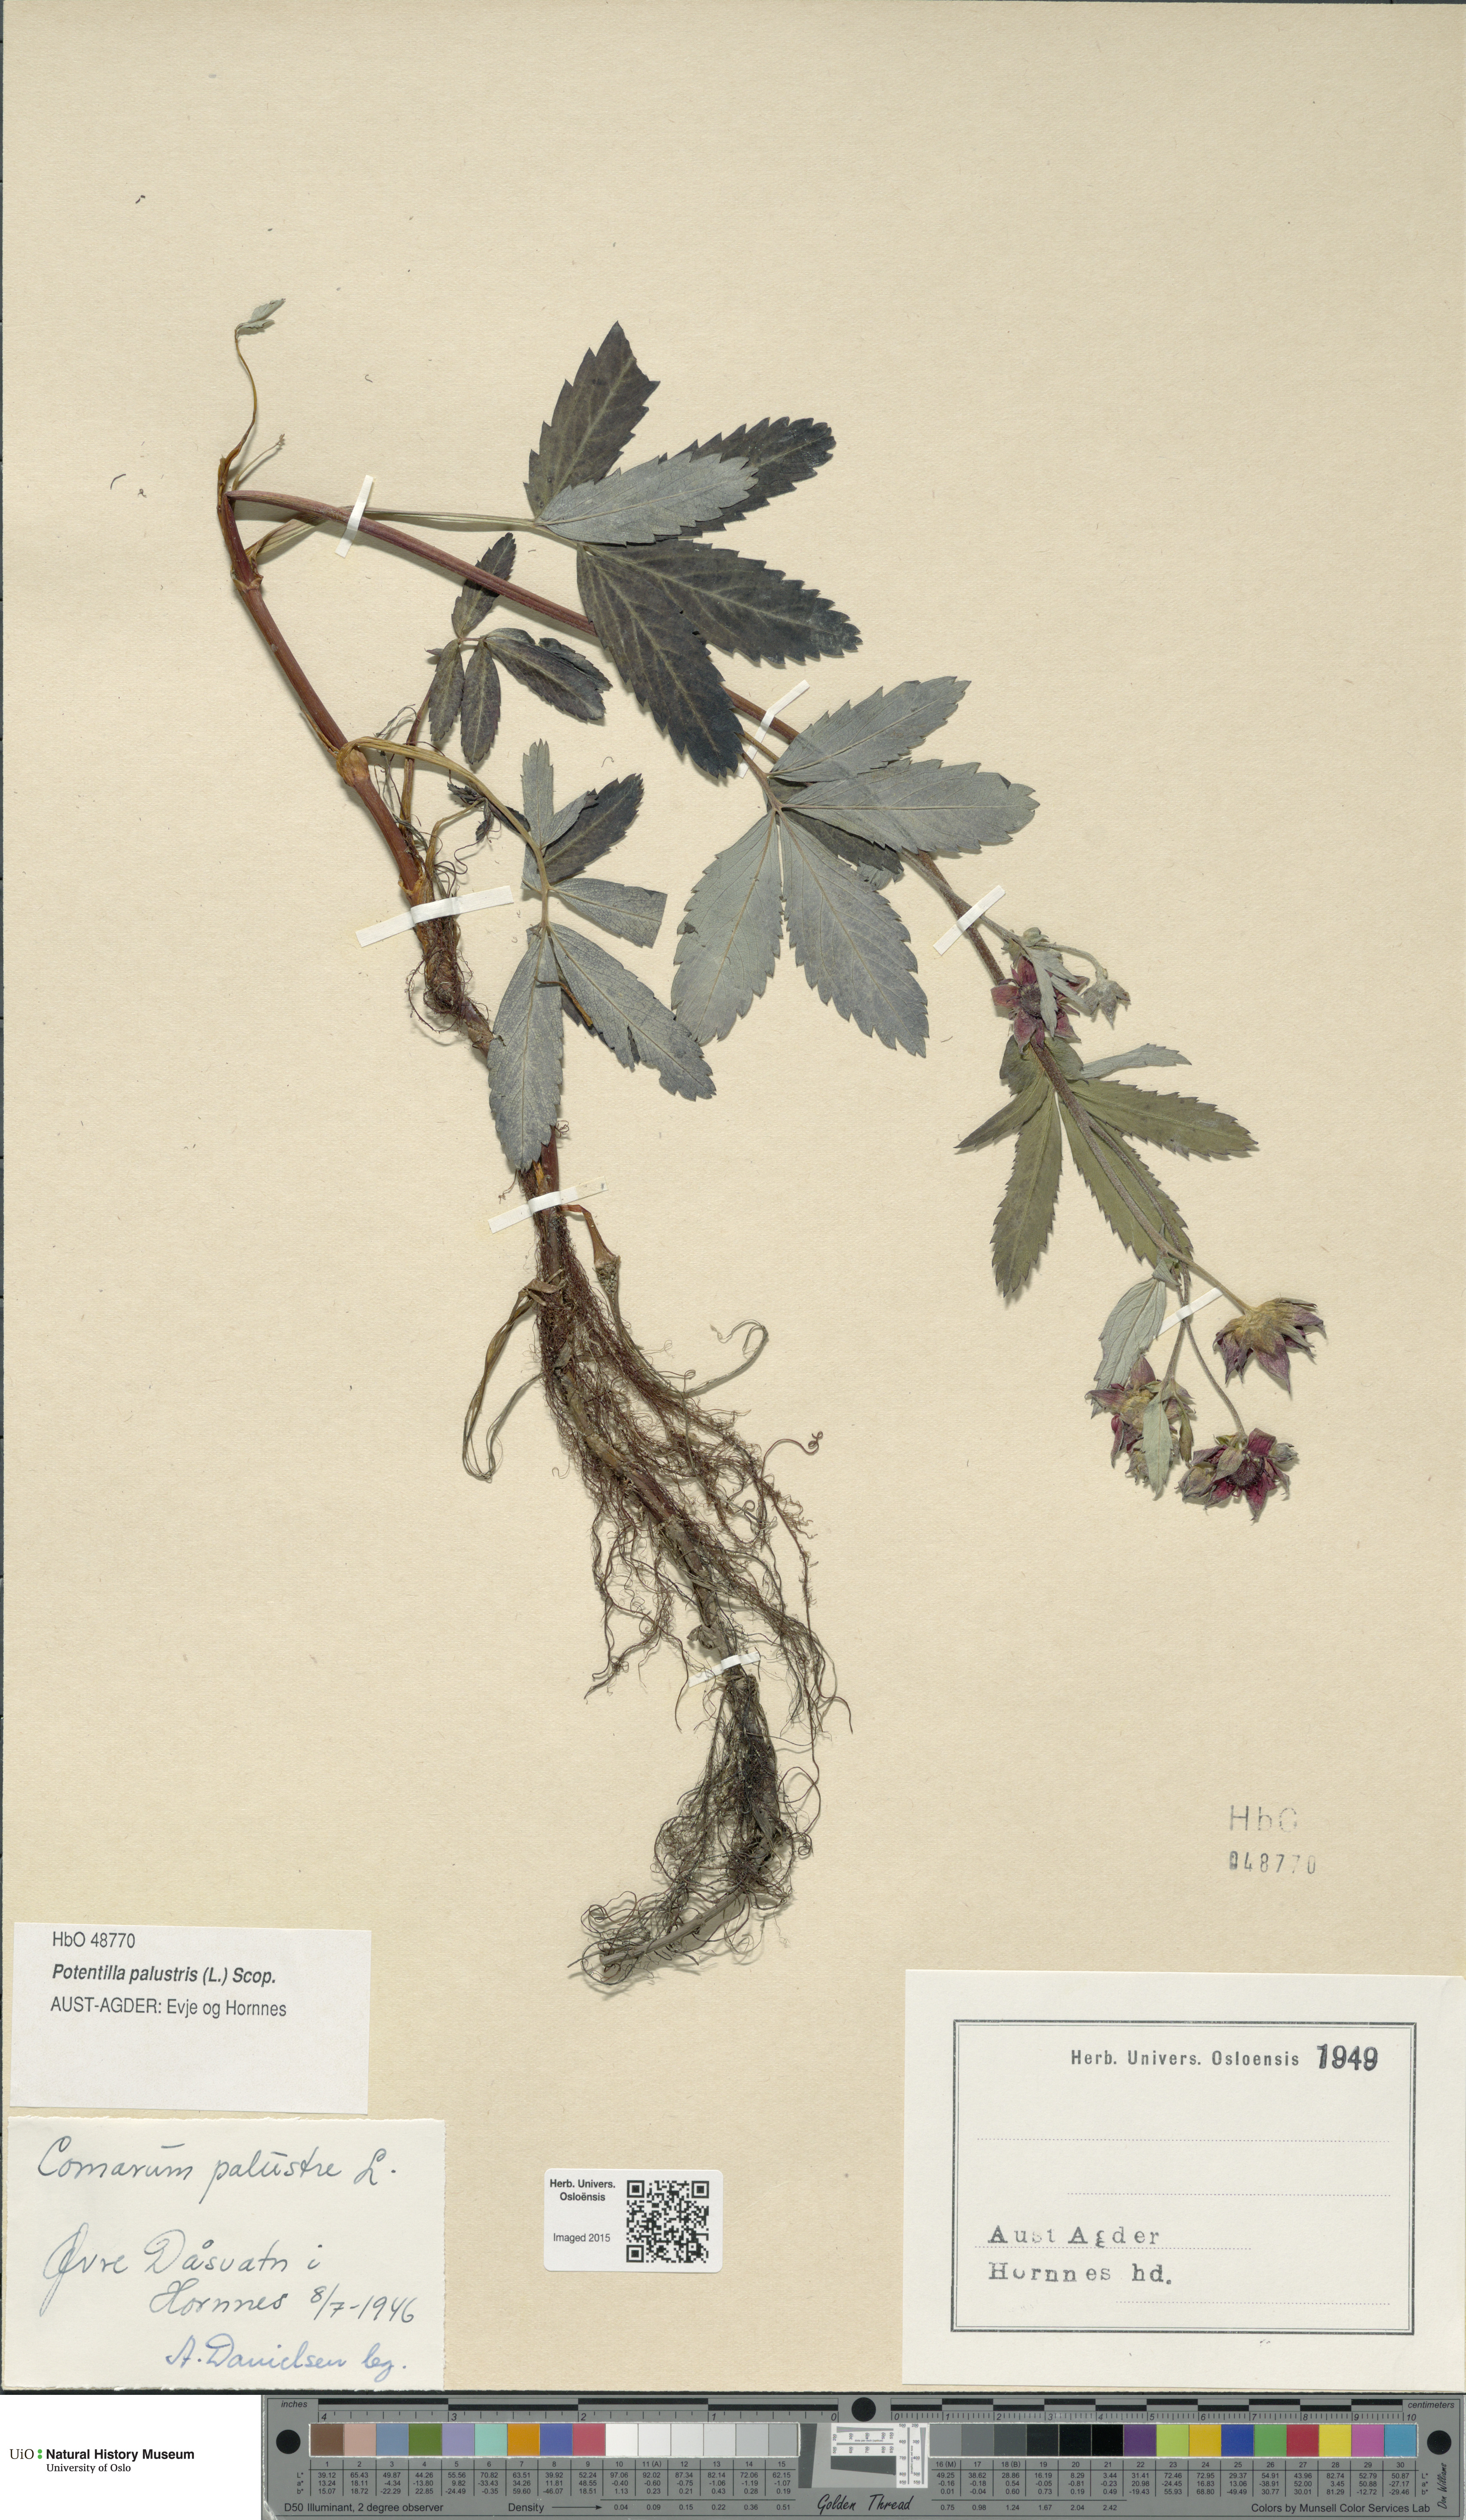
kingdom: Plantae
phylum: Tracheophyta
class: Magnoliopsida
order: Rosales
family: Rosaceae
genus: Comarum
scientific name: Comarum palustre
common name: Marsh cinquefoil
